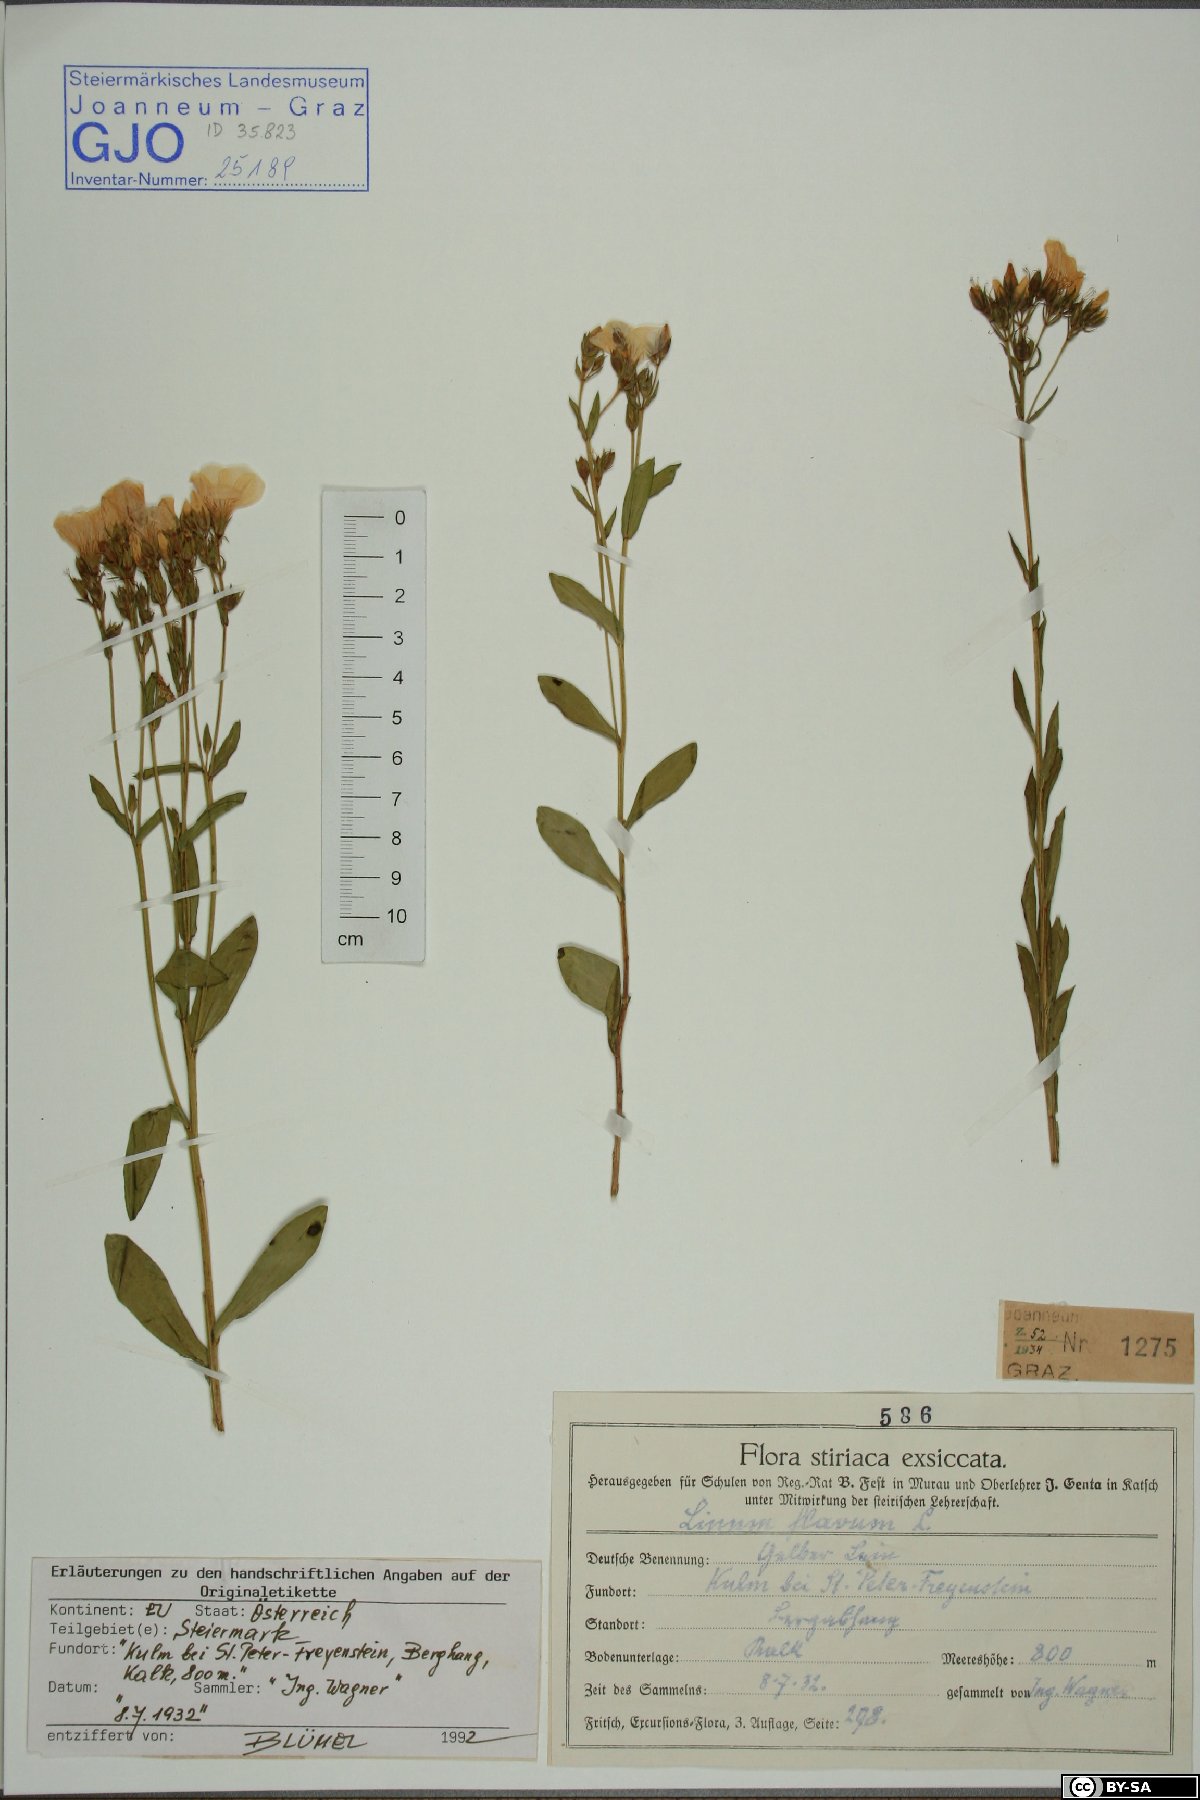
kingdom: Plantae
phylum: Tracheophyta
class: Magnoliopsida
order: Malpighiales
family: Linaceae
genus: Linum
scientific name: Linum flavum
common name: Yellow flax
